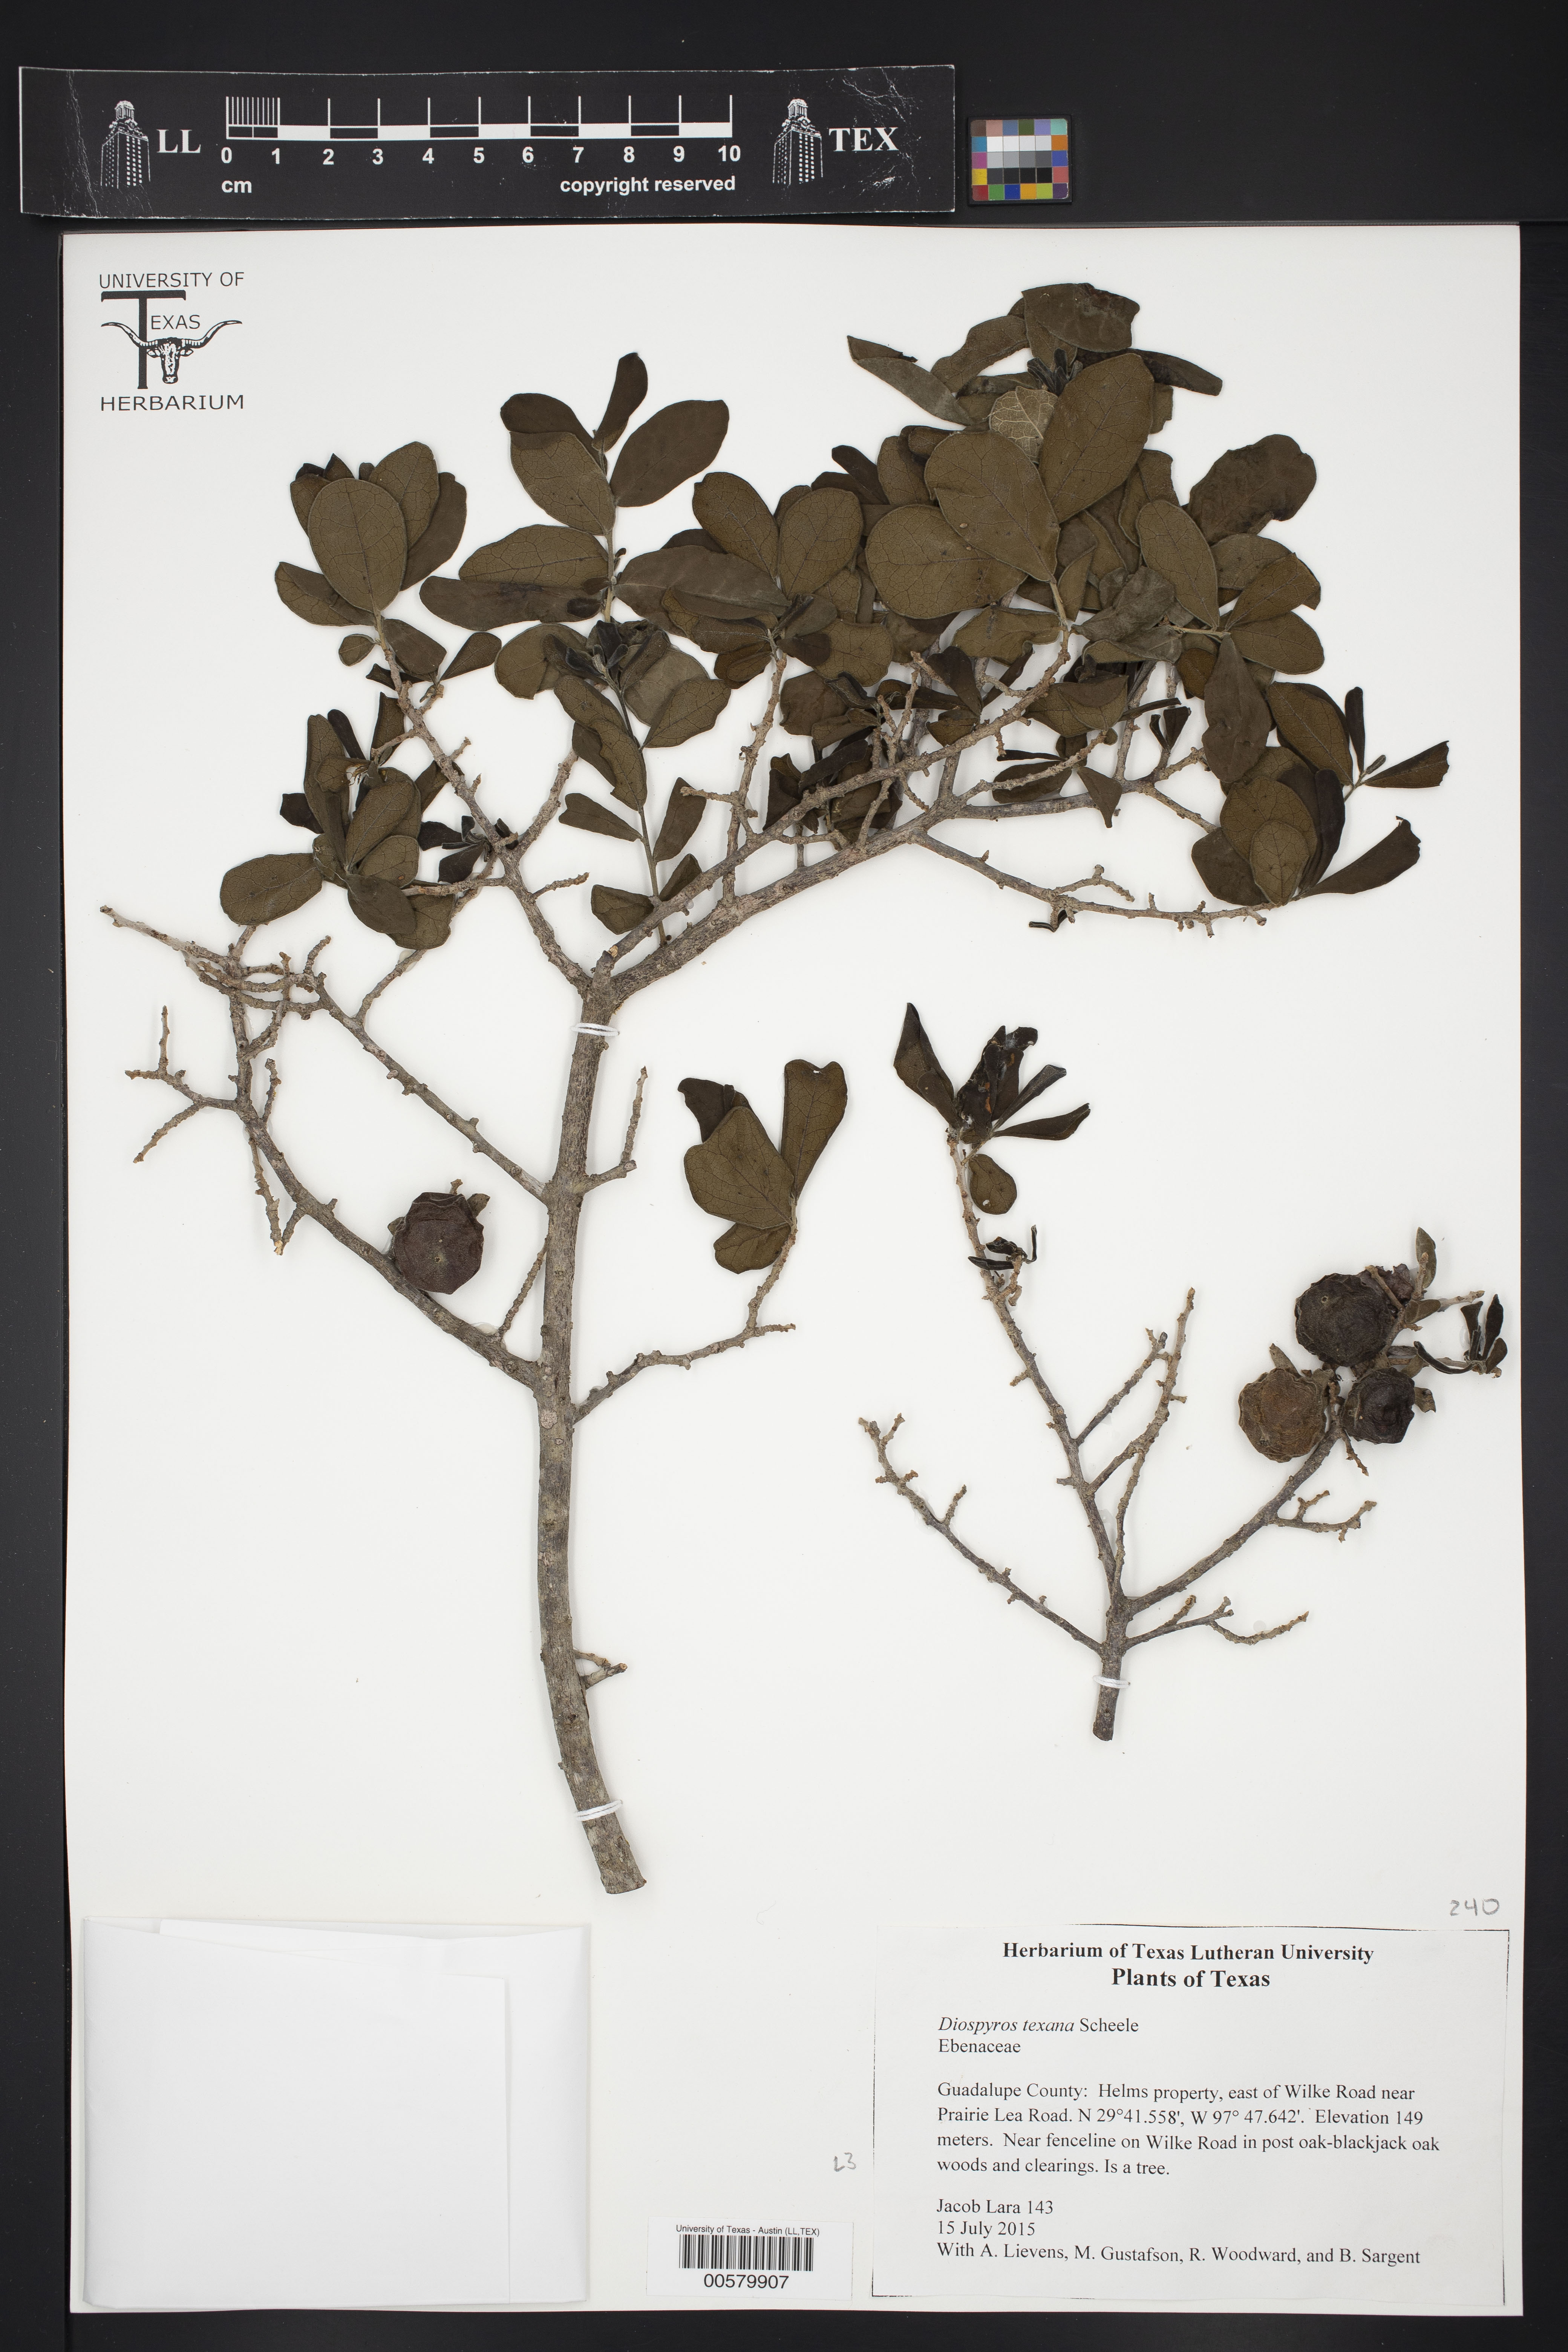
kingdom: Plantae
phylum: Tracheophyta
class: Magnoliopsida
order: Ericales
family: Ebenaceae
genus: Diospyros
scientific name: Diospyros texana
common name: Texas persimmon
